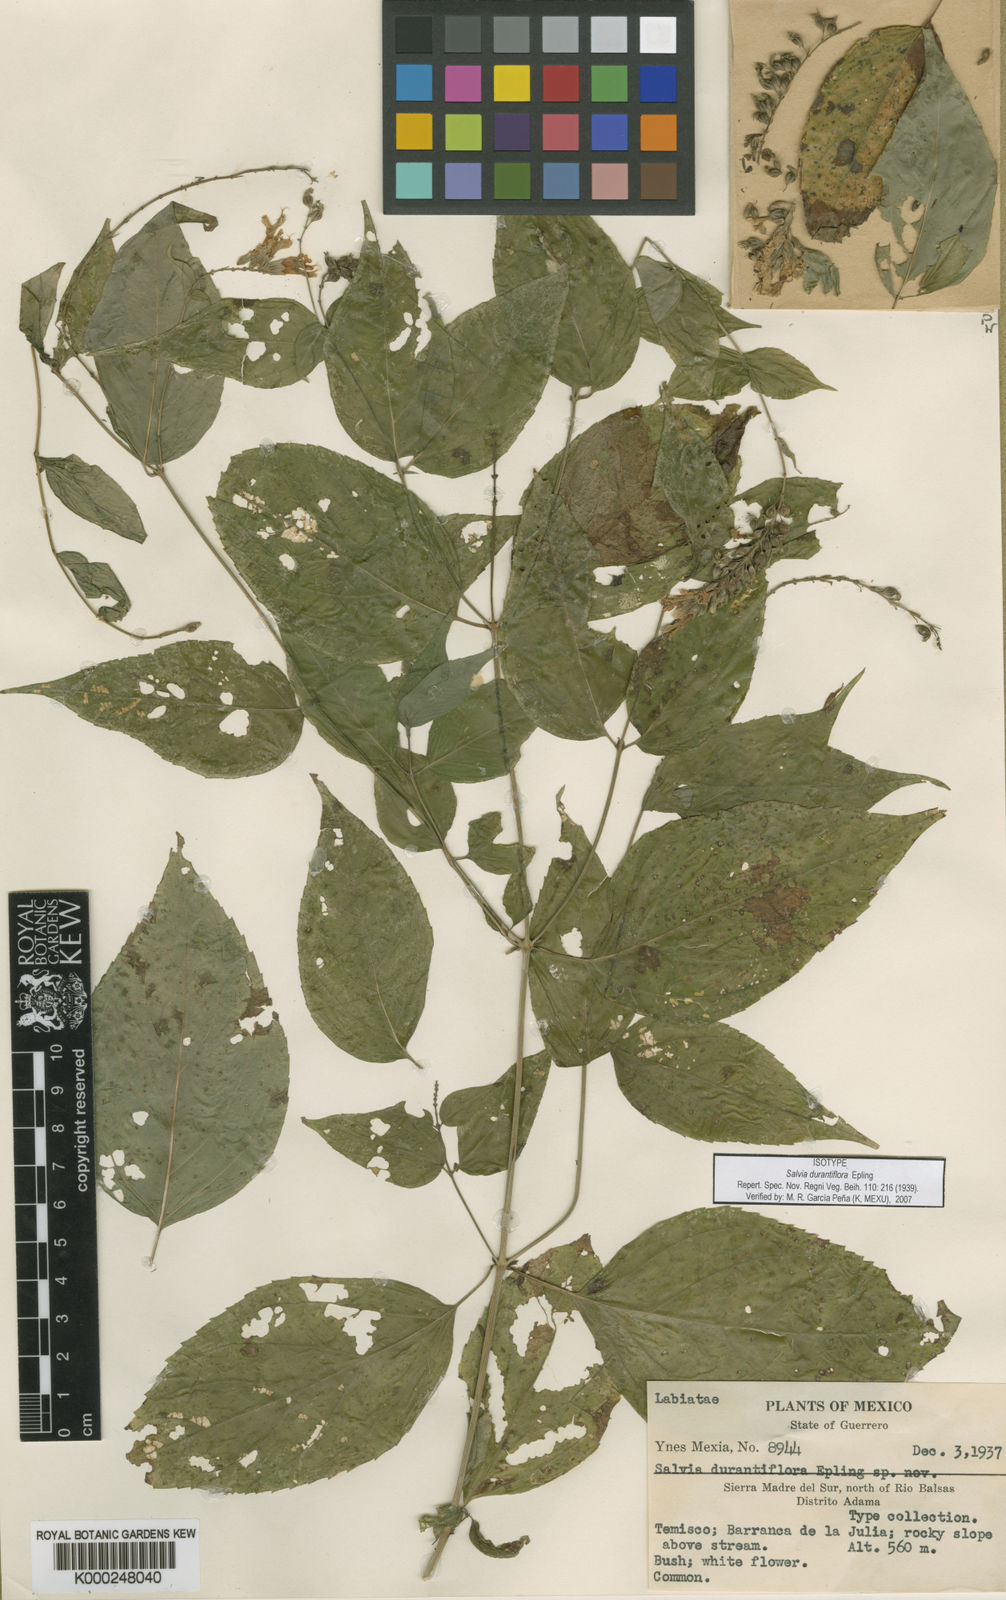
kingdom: Plantae
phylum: Tracheophyta
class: Magnoliopsida
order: Lamiales
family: Lamiaceae
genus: Salvia
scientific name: Salvia durantiflora
